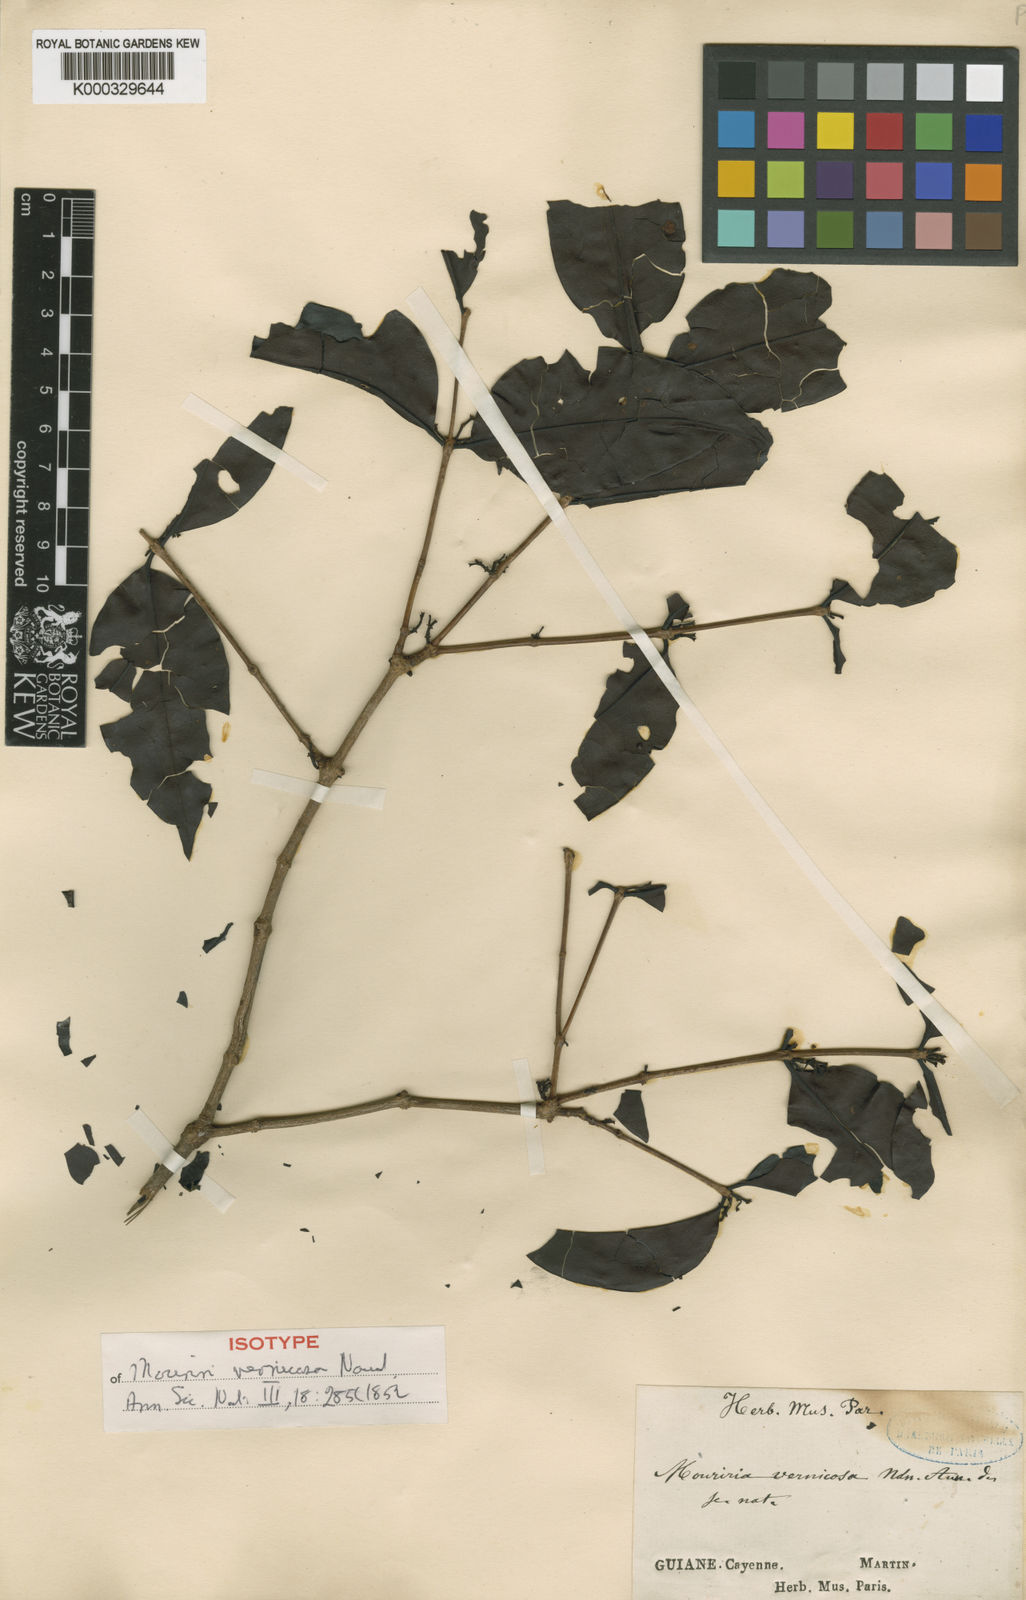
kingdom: Plantae
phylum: Tracheophyta
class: Magnoliopsida
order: Myrtales
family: Melastomataceae
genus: Mouriri
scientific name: Mouriri vernicosa
